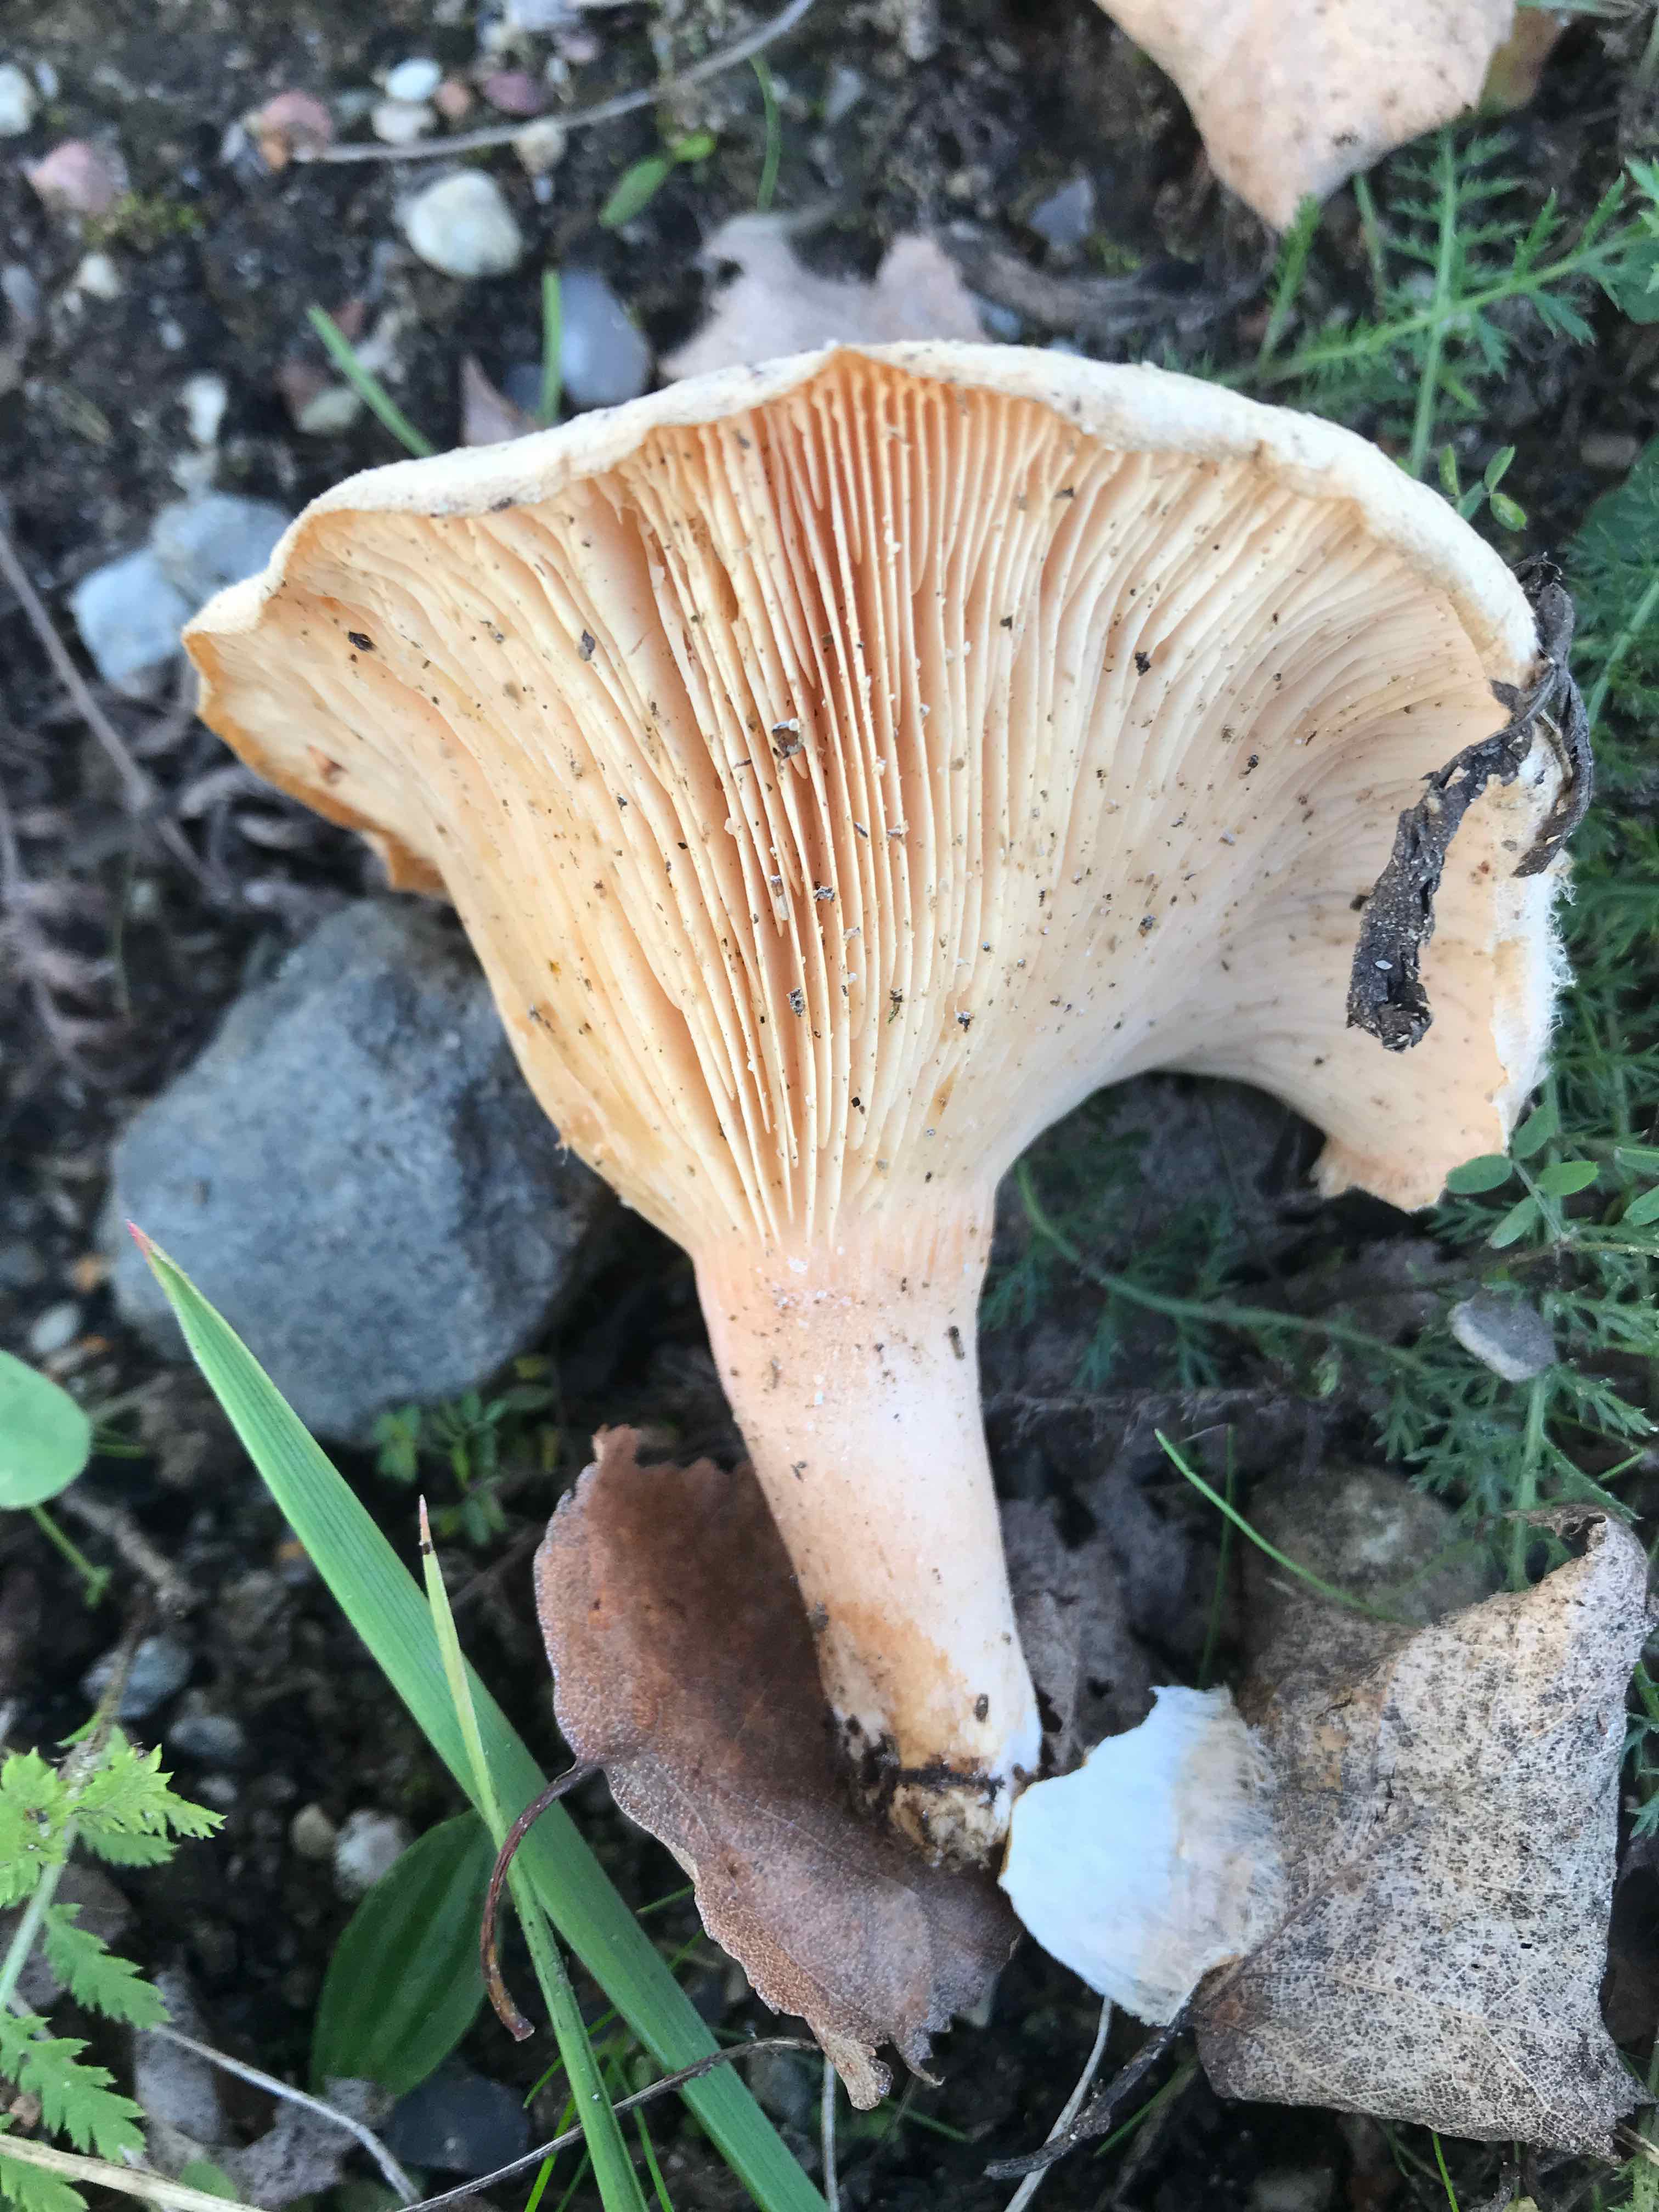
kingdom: Fungi
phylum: Basidiomycota
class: Agaricomycetes
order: Russulales
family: Russulaceae
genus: Lactarius
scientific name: Lactarius pubescens
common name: dunet mælkehat
